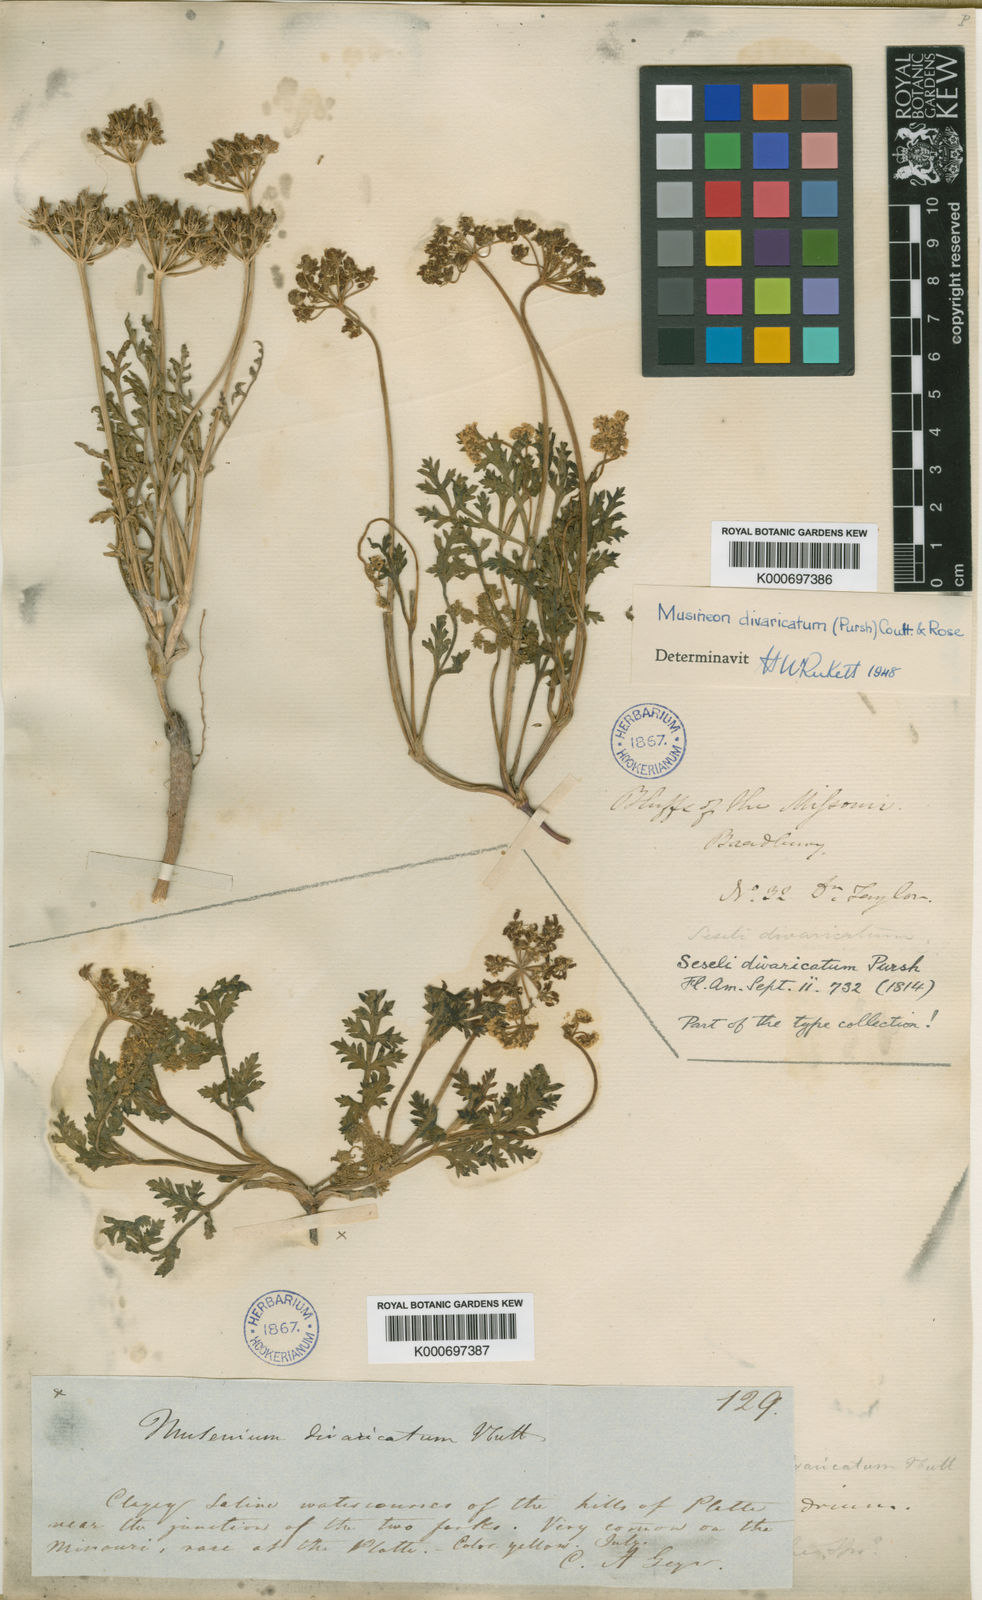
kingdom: Plantae
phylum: Tracheophyta
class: Magnoliopsida
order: Apiales
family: Apiaceae
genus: Musineon
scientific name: Musineon divaricatum
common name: Plains musineon
